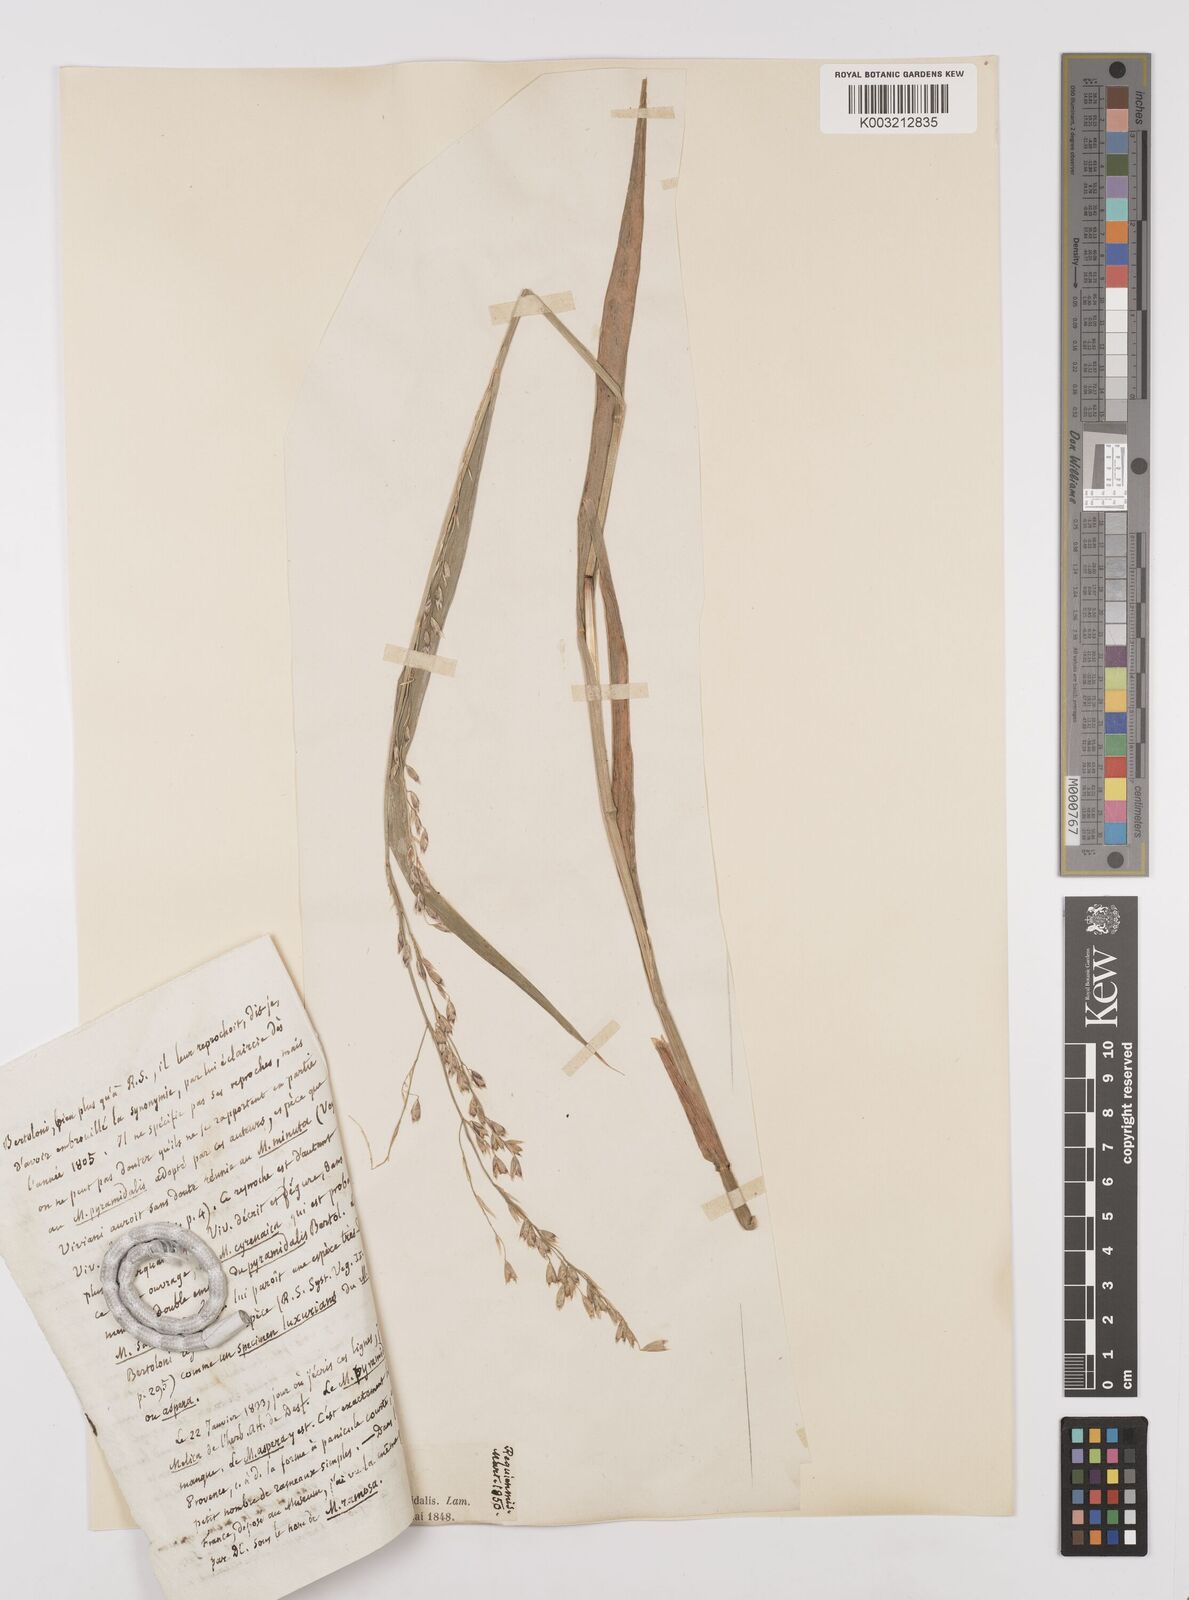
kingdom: Plantae
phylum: Tracheophyta
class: Liliopsida
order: Poales
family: Poaceae
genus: Melica
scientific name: Melica minuta
